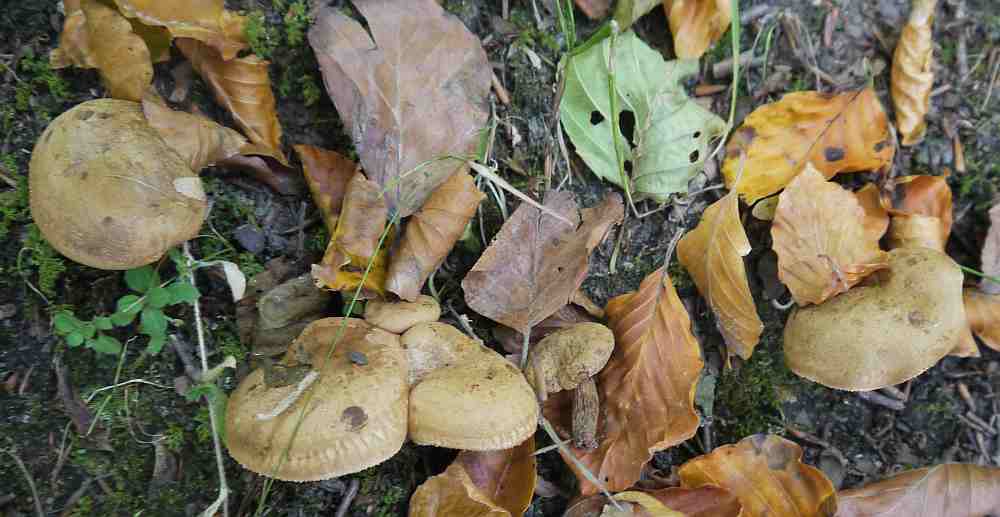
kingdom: Fungi
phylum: Basidiomycota
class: Agaricomycetes
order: Boletales
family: Paxillaceae
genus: Paxillus
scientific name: Paxillus rubicundulus
